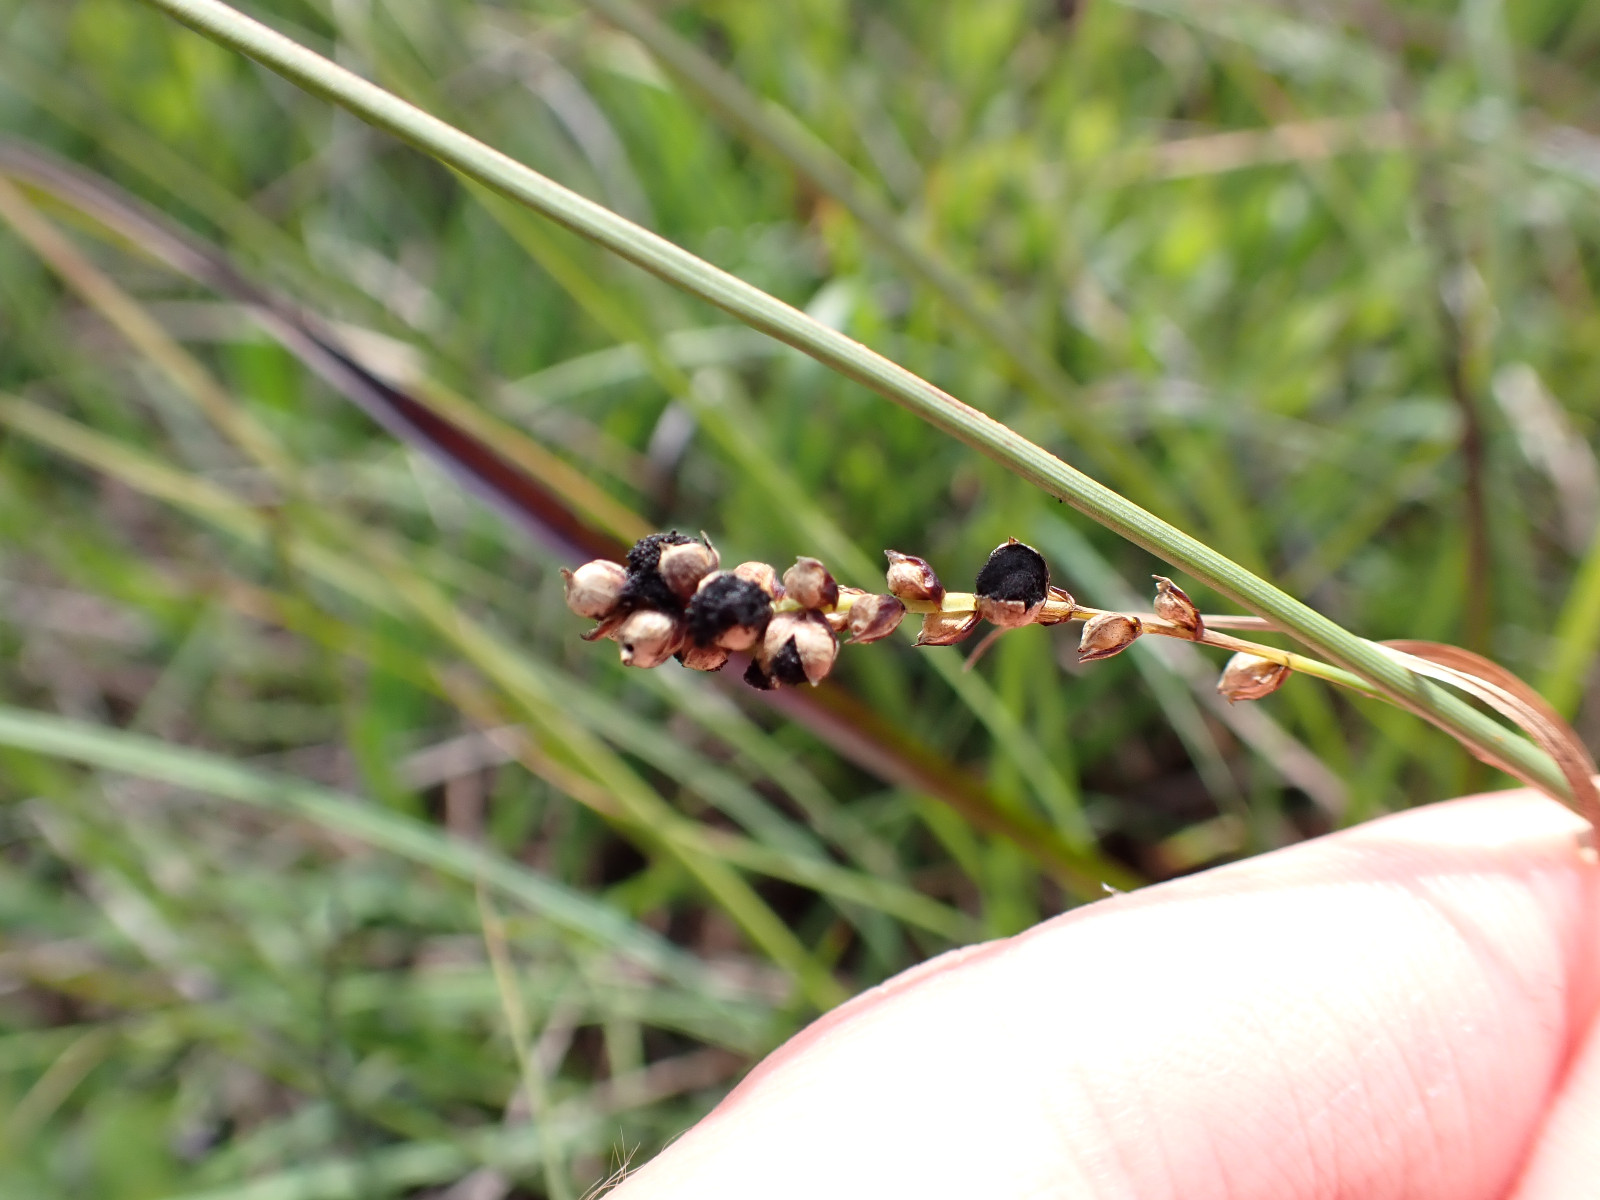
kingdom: Fungi
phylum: Basidiomycota
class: Ustilaginomycetes
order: Ustilaginales
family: Anthracoideaceae
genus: Anthracoidea
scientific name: Anthracoidea paniceae
